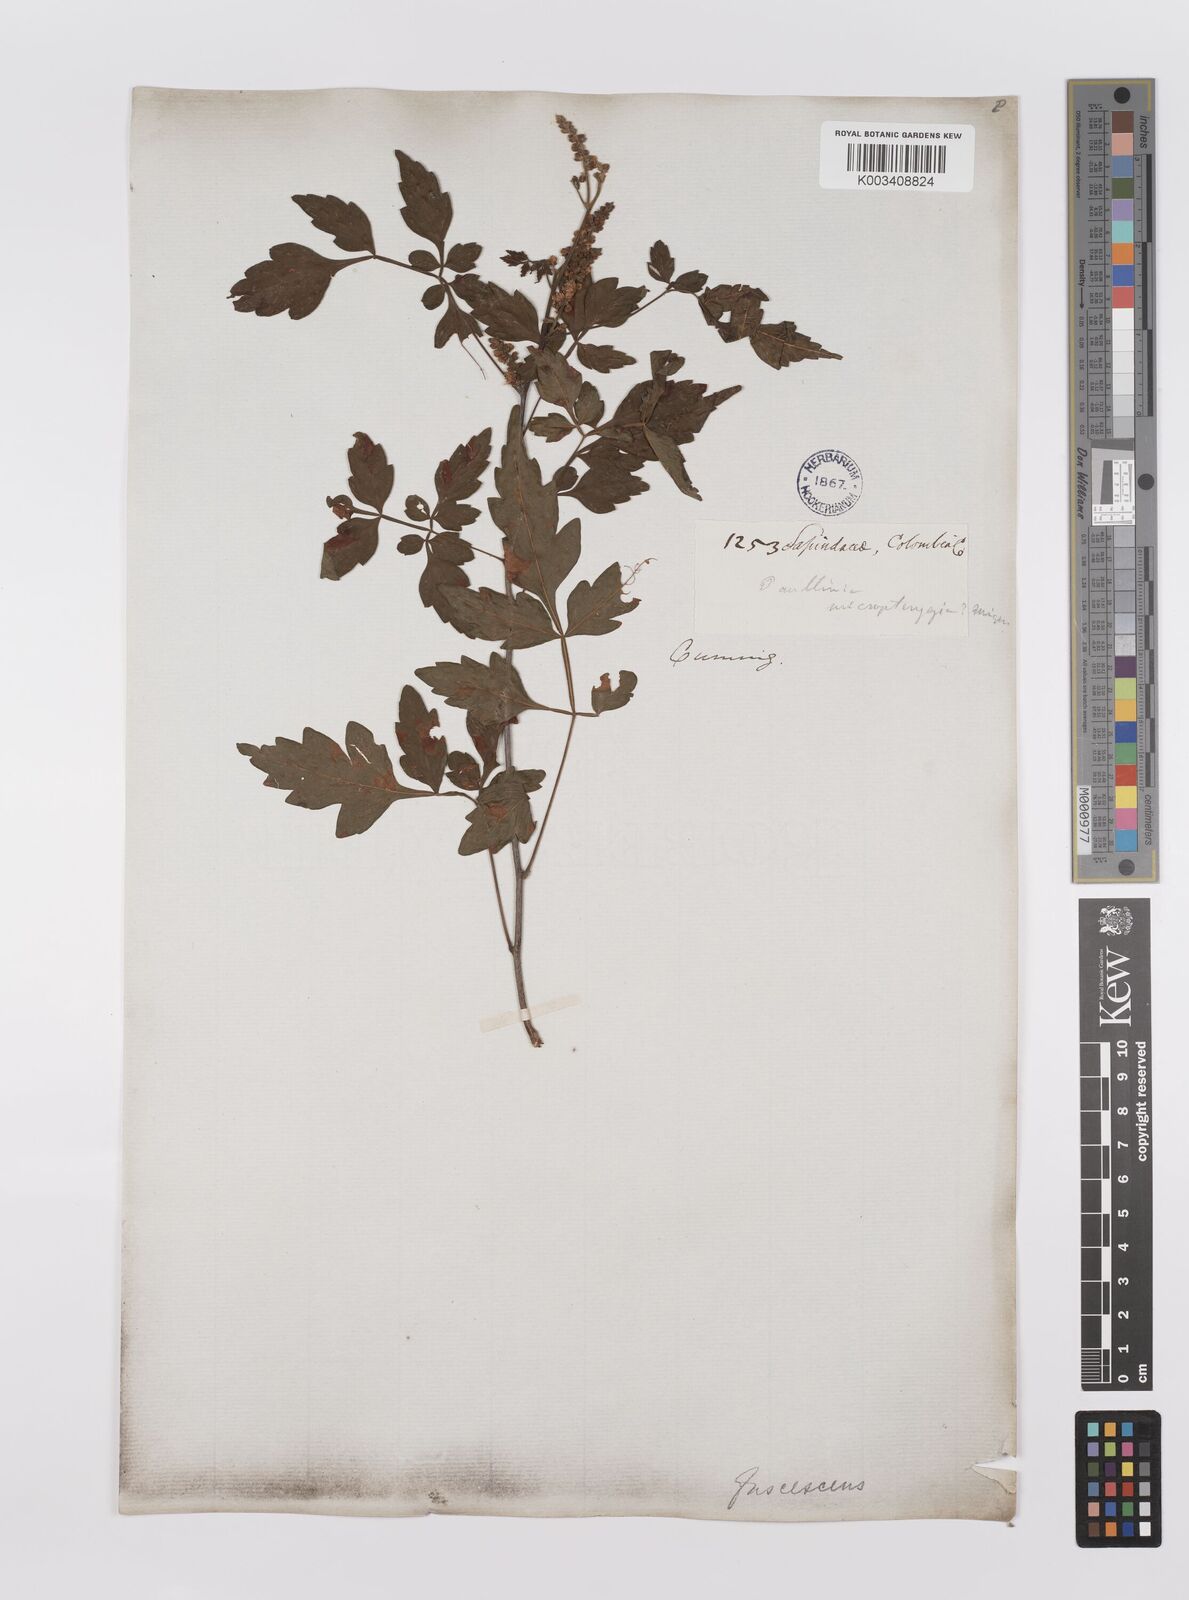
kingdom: Plantae
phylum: Tracheophyta
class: Magnoliopsida
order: Sapindales
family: Sapindaceae
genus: Paullinia
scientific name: Paullinia fuscescens
